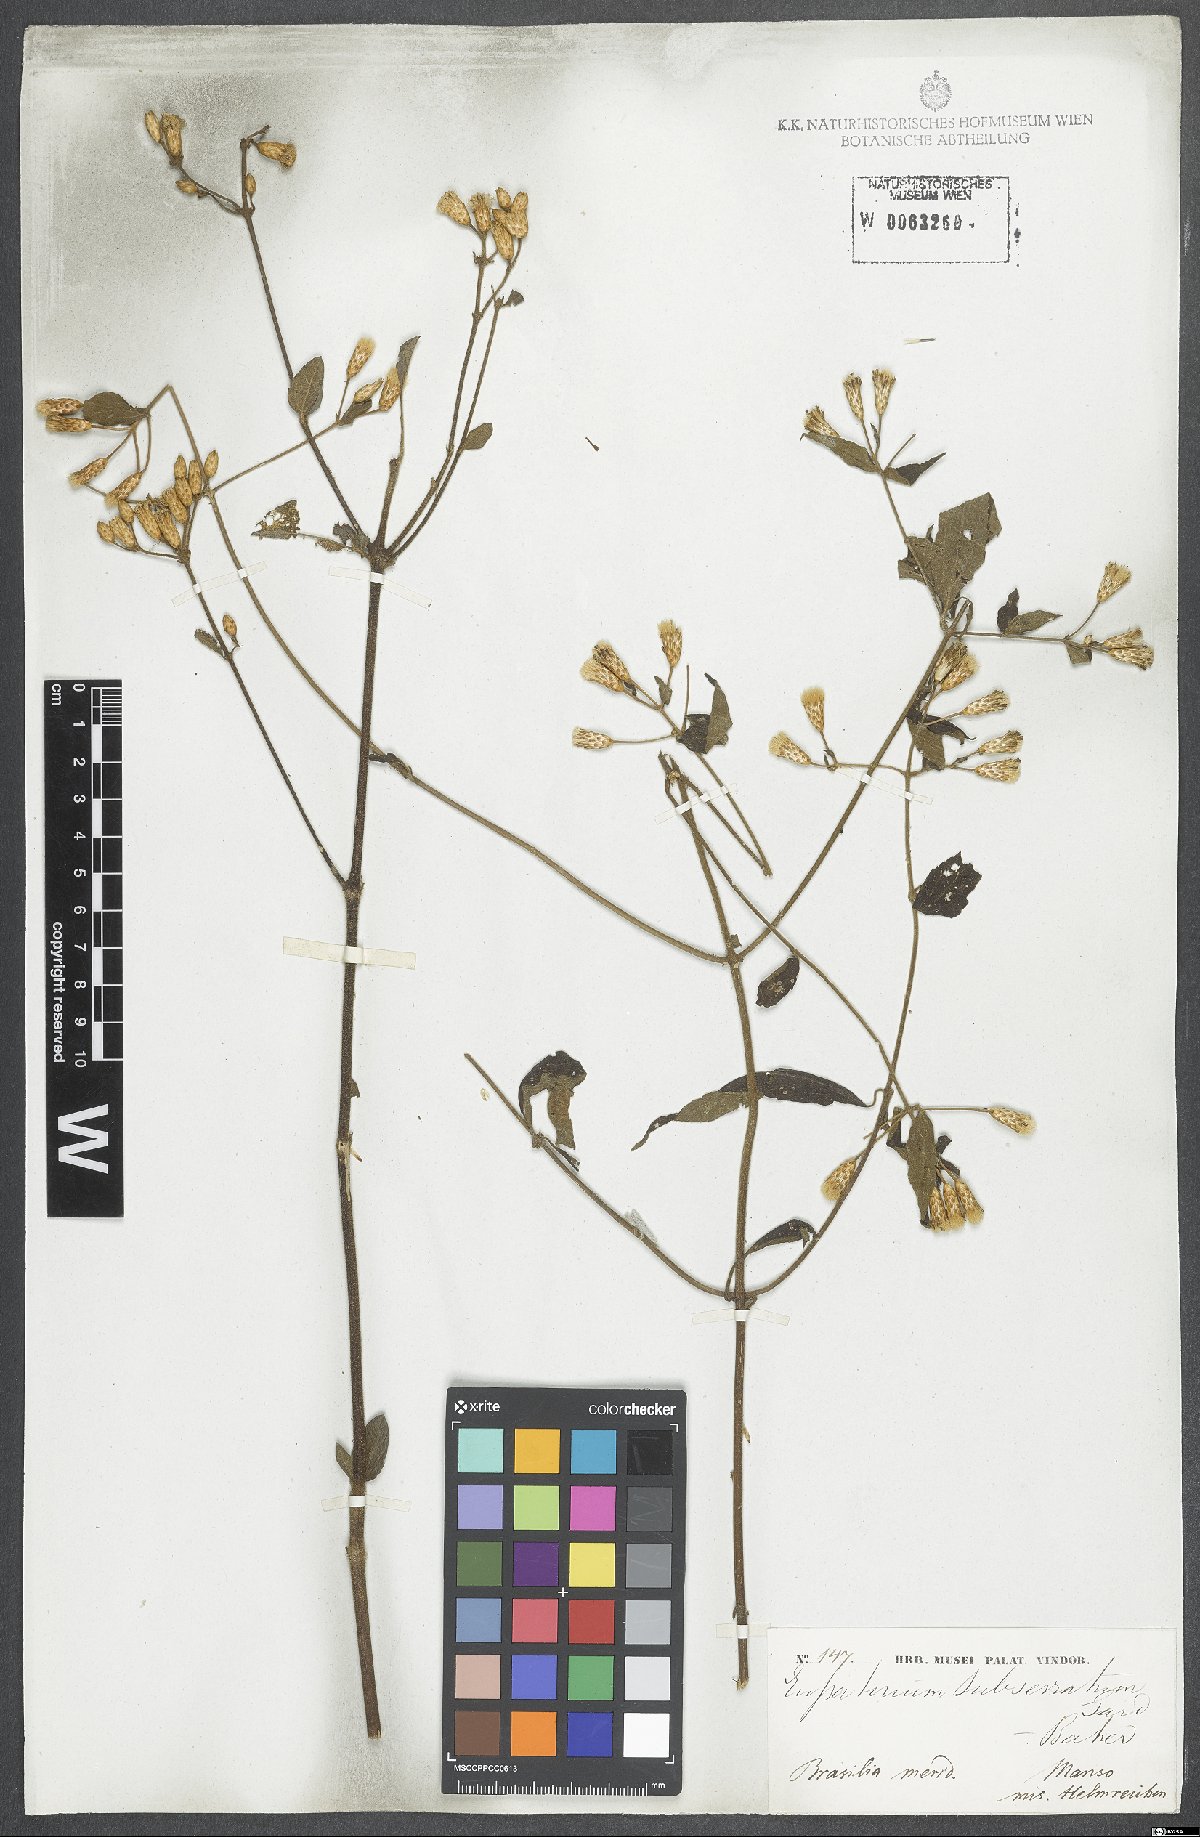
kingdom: Plantae
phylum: Tracheophyta
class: Magnoliopsida
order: Asterales
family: Asteraceae
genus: Chromolaena
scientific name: Chromolaena mucronata
